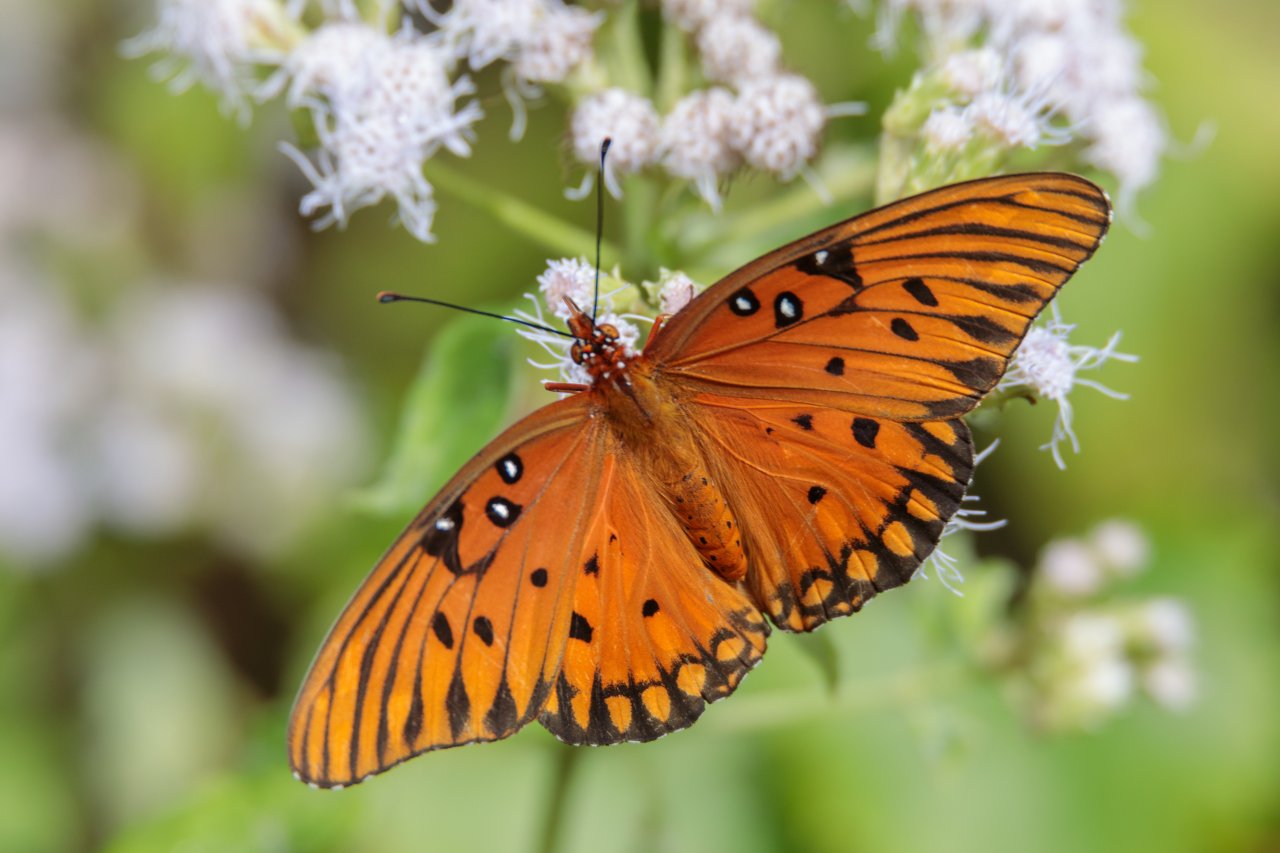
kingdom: Animalia
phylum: Arthropoda
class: Insecta
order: Lepidoptera
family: Nymphalidae
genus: Dione
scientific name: Dione vanillae
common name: Gulf Fritillary
